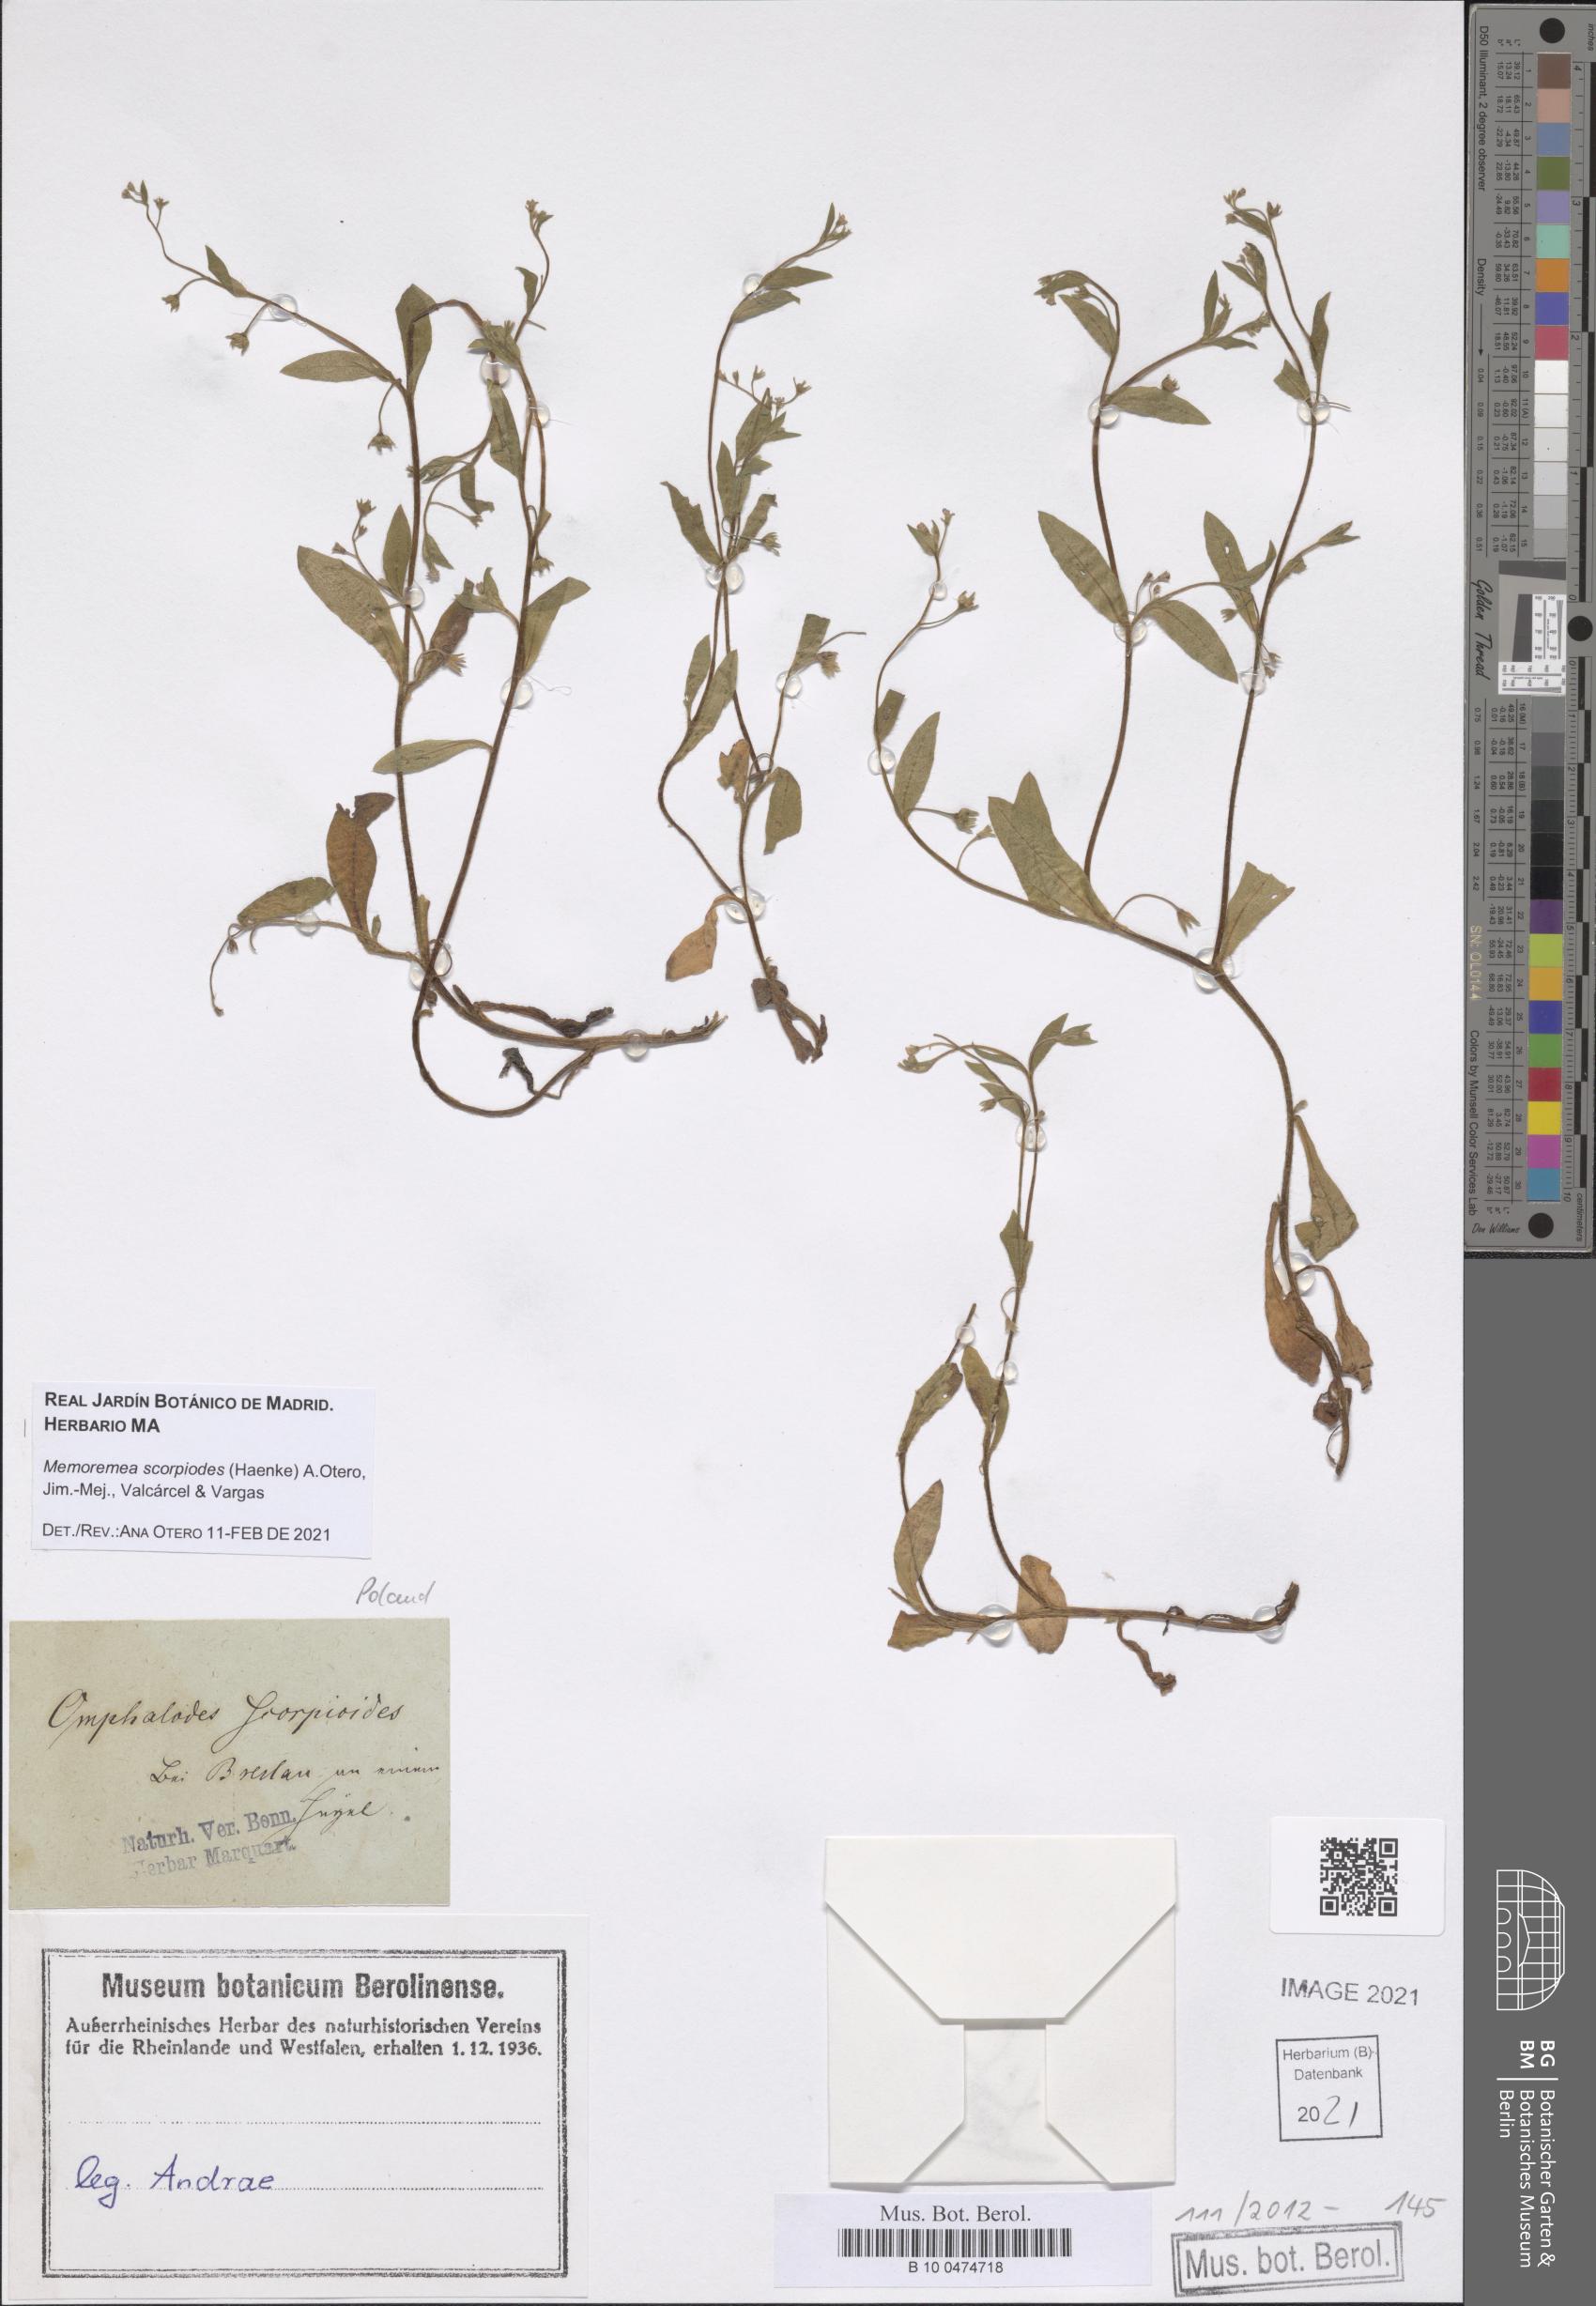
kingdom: Plantae
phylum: Tracheophyta
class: Magnoliopsida
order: Boraginales
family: Boraginaceae
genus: Memoremea
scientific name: Memoremea scorpioides
